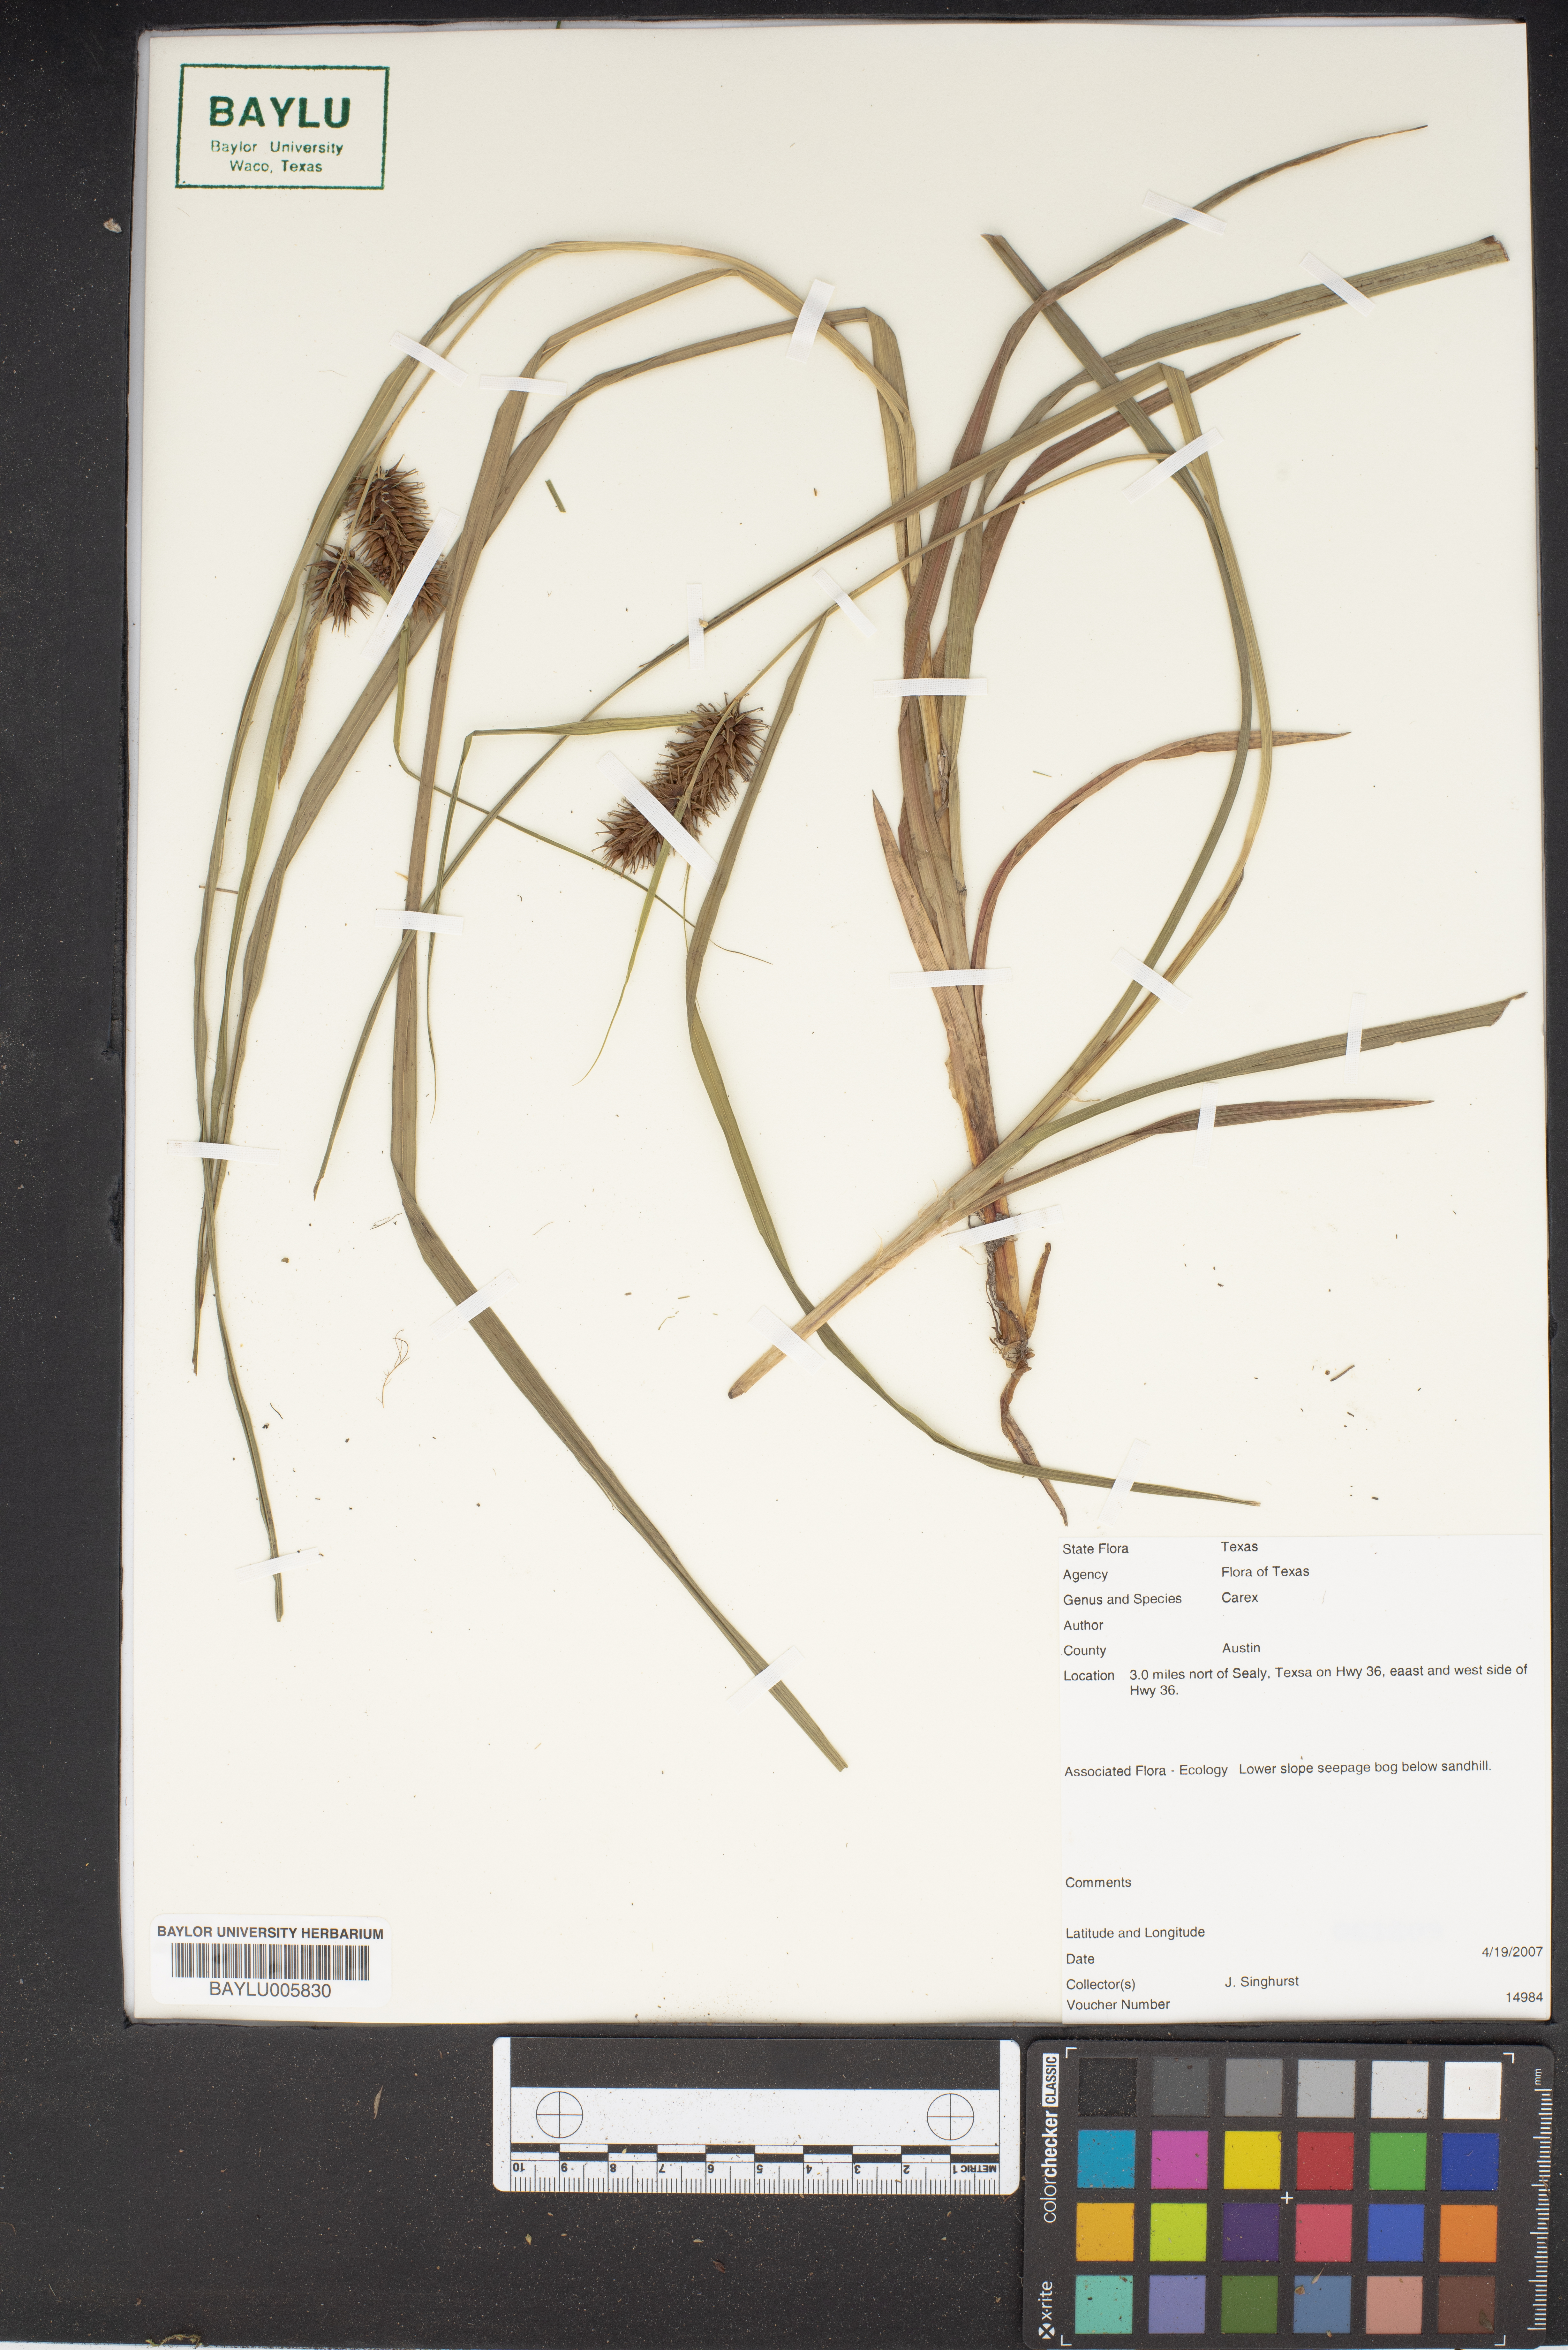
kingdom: Plantae
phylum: Tracheophyta
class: Liliopsida
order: Poales
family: Cyperaceae
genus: Carex
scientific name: Carex
